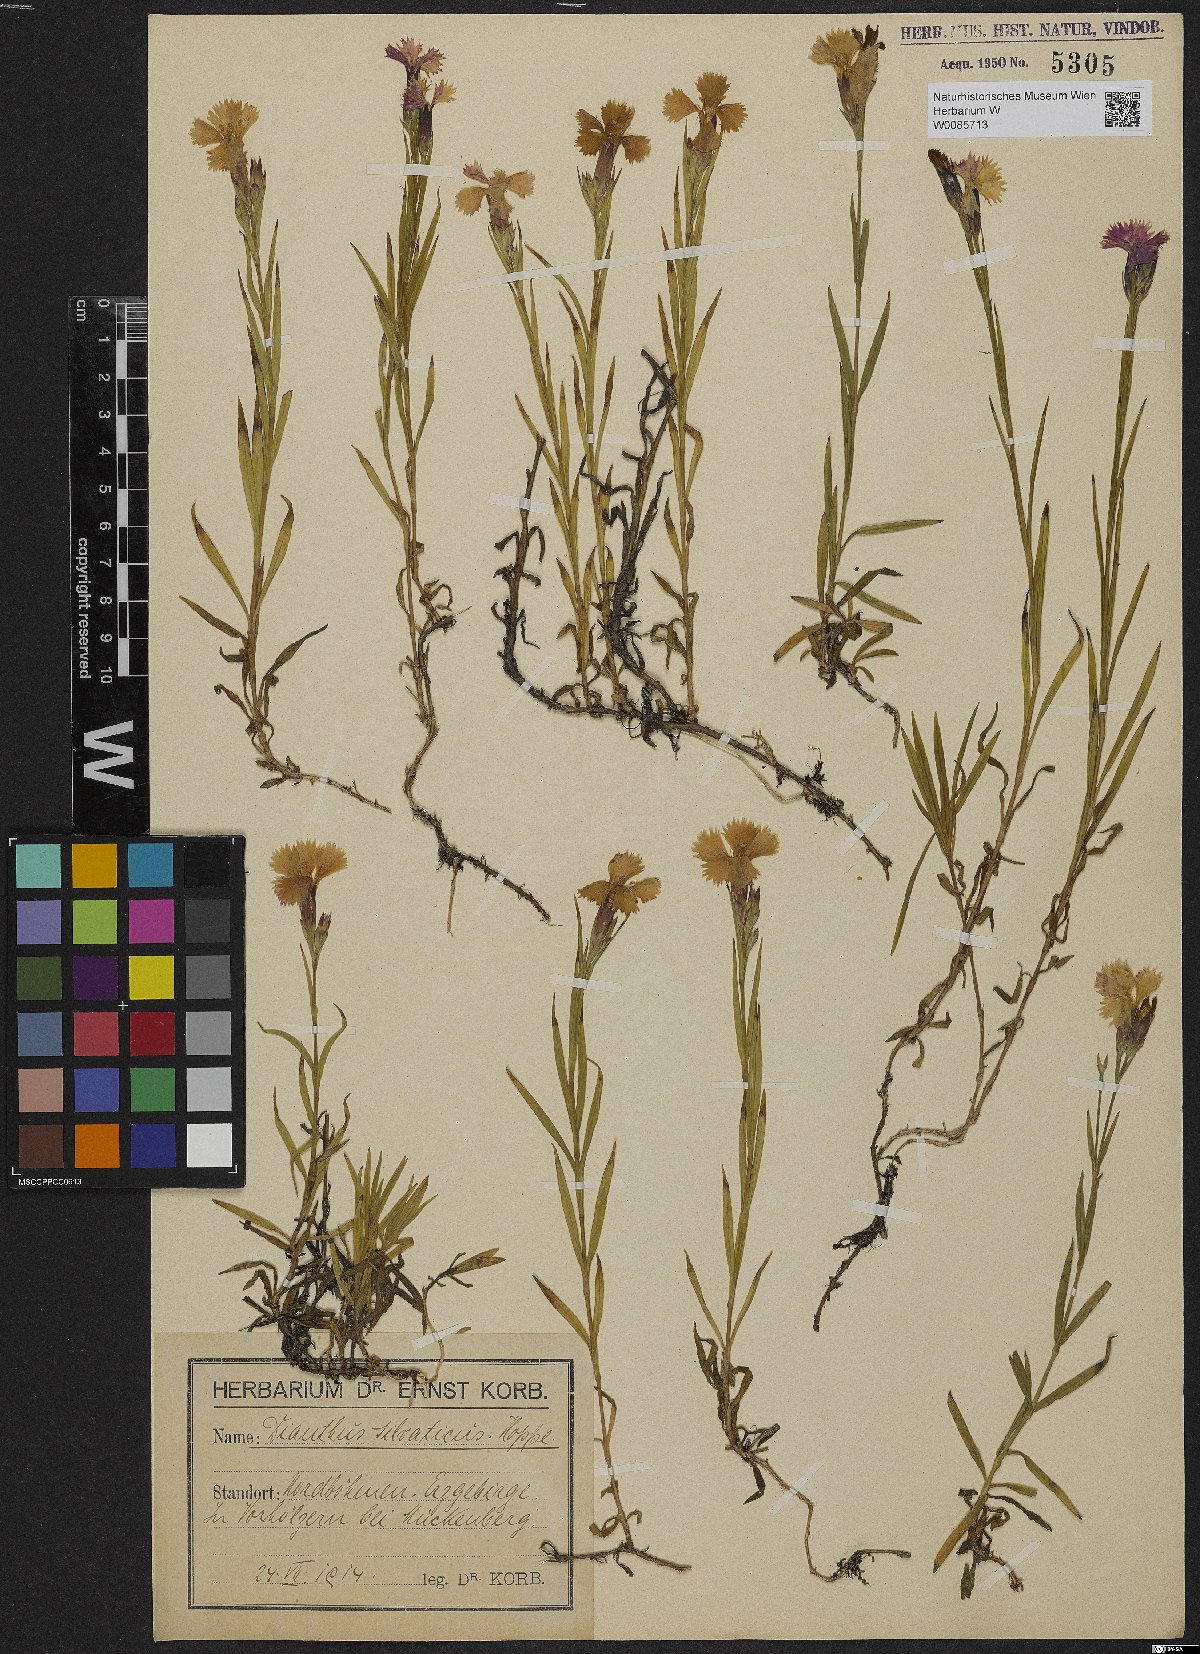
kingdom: Plantae
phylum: Tracheophyta
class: Magnoliopsida
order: Caryophyllales
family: Caryophyllaceae
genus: Dianthus
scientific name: Dianthus seguieri
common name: Ragged pink
